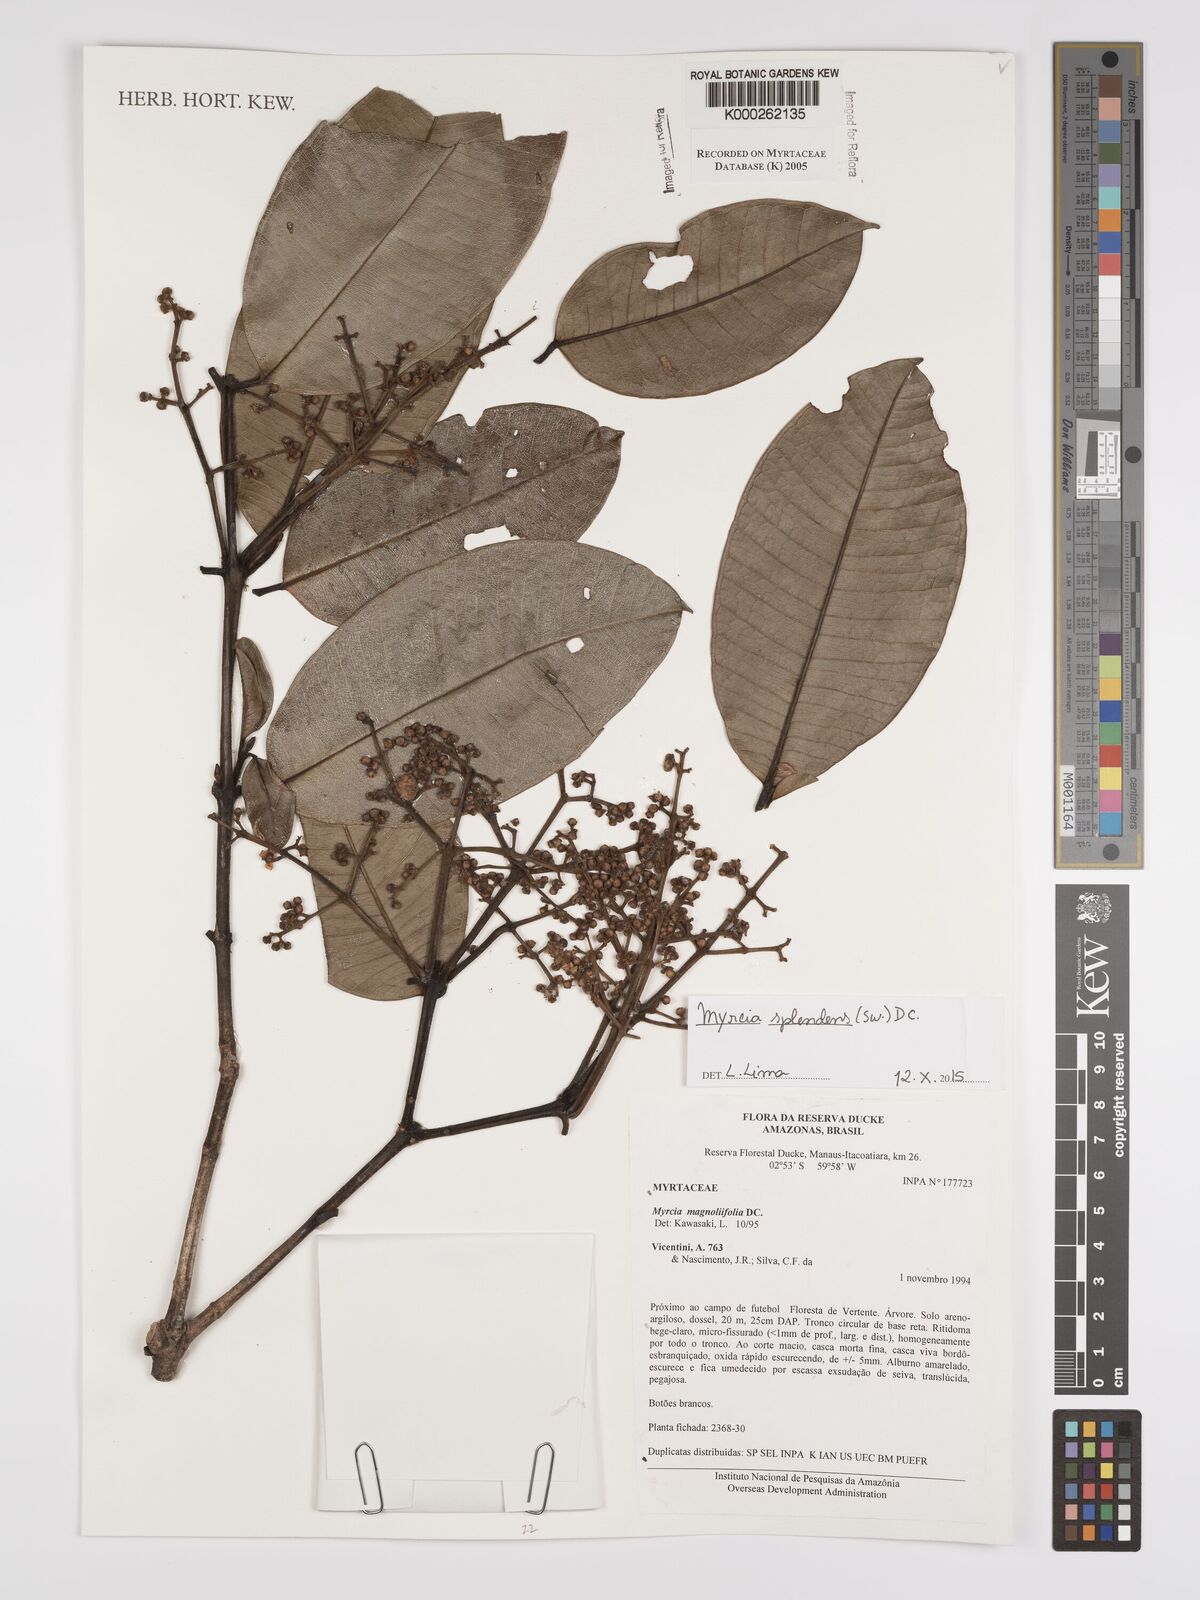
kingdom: Plantae
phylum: Tracheophyta
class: Magnoliopsida
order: Myrtales
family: Myrtaceae
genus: Myrcia
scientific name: Myrcia splendens
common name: Surinam cherry
